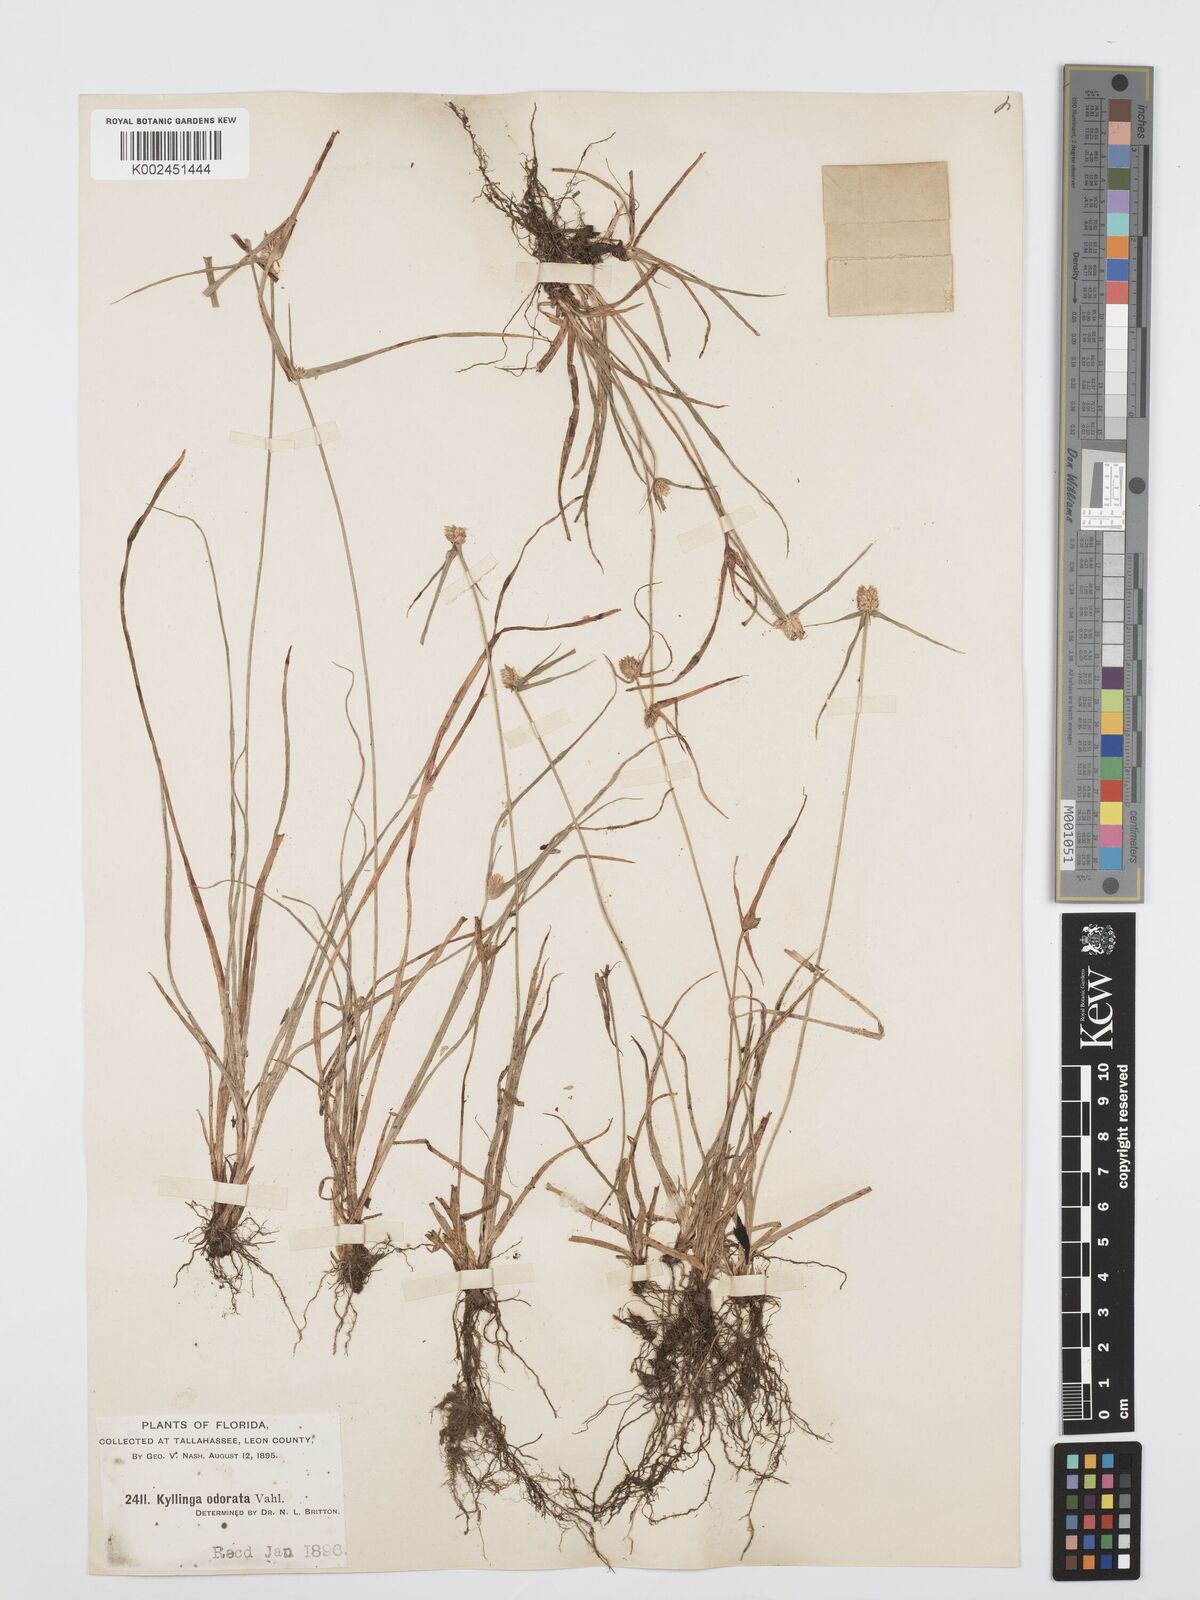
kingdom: Plantae
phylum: Tracheophyta
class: Liliopsida
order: Poales
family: Cyperaceae
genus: Cyperus
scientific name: Cyperus
